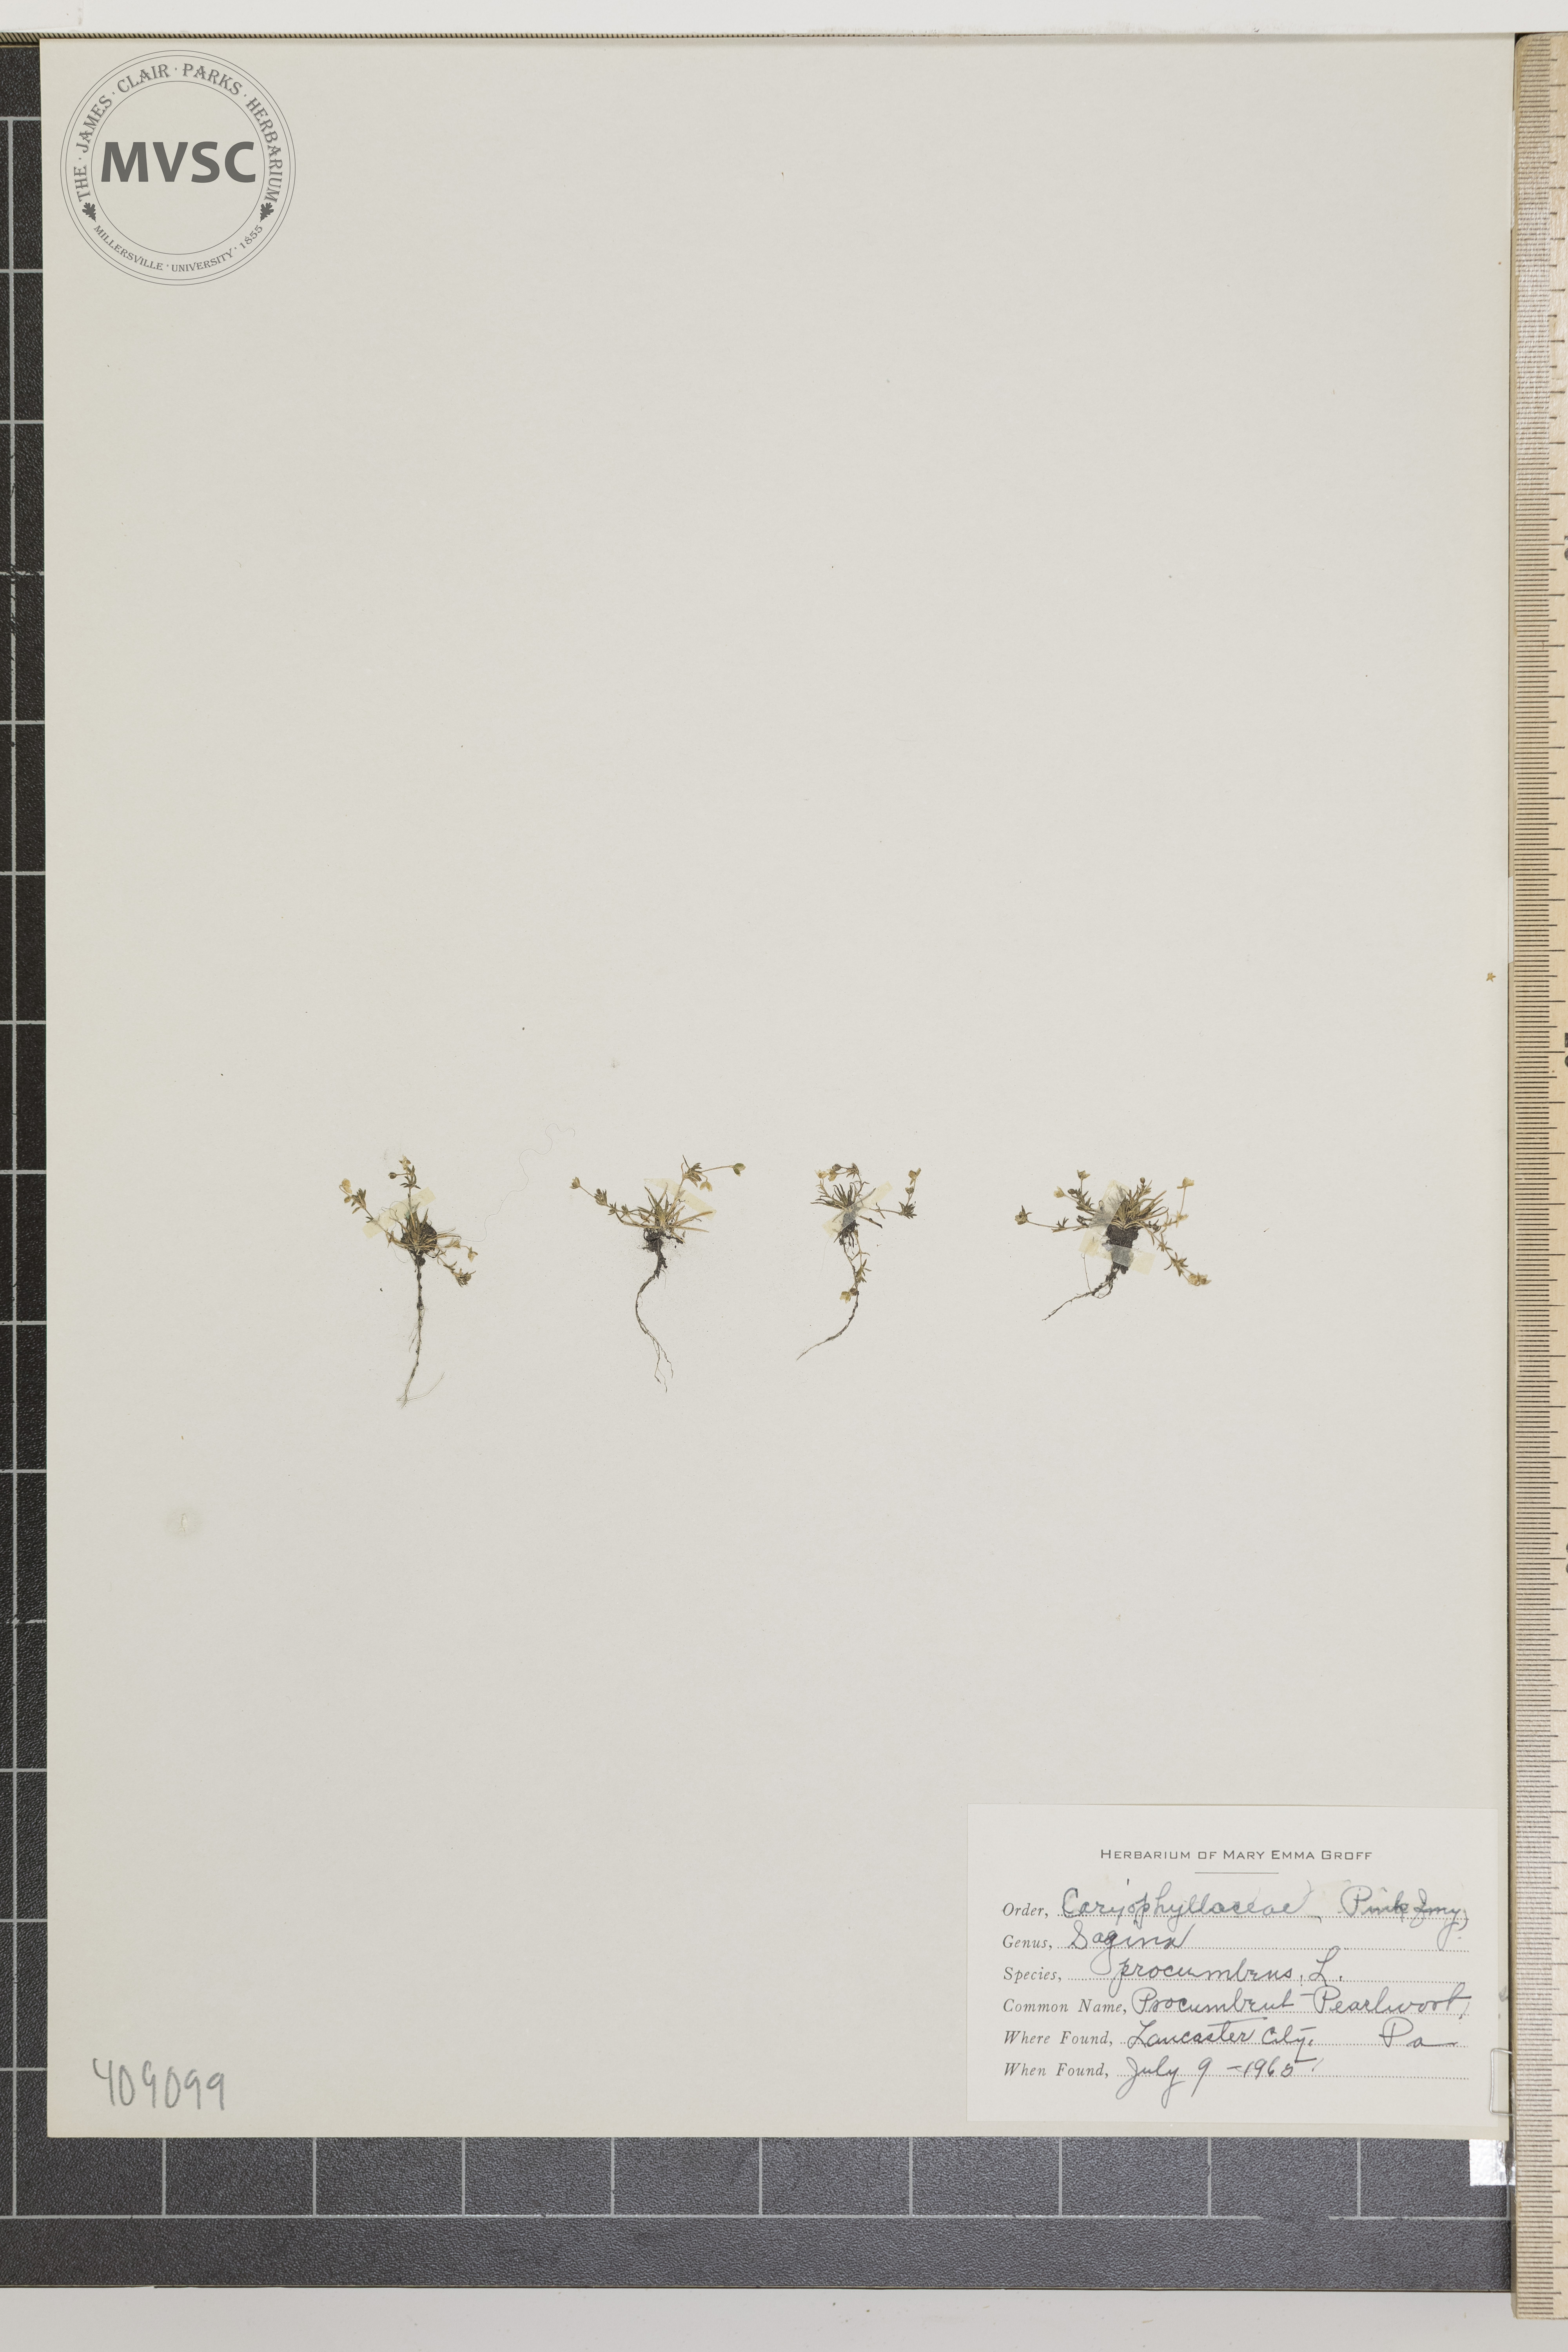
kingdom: Plantae
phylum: Tracheophyta
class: Magnoliopsida
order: Caryophyllales
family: Caryophyllaceae
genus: Sagina
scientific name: Sagina procumbens
